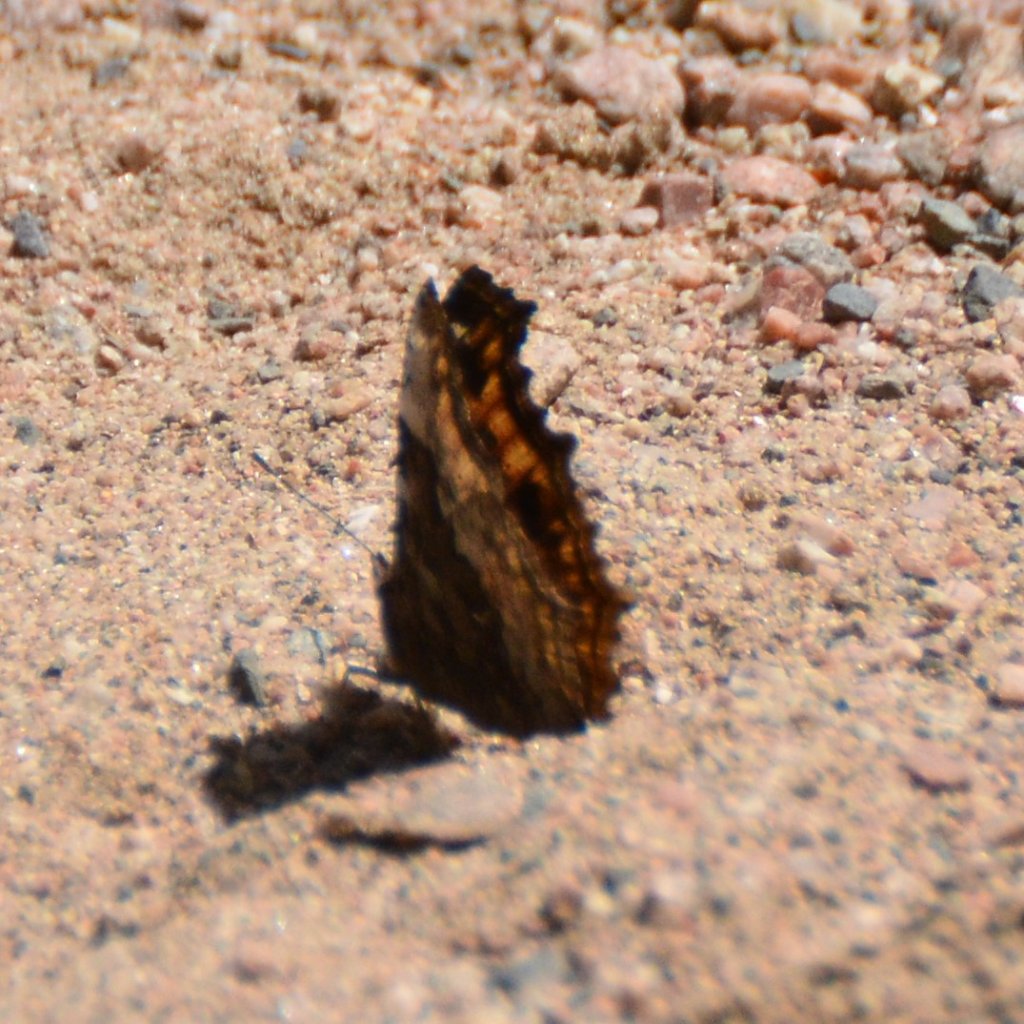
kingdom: Animalia
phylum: Arthropoda
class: Insecta
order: Lepidoptera
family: Nymphalidae
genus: Polygonia
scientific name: Polygonia vaualbum
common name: Compton Tortoiseshell
